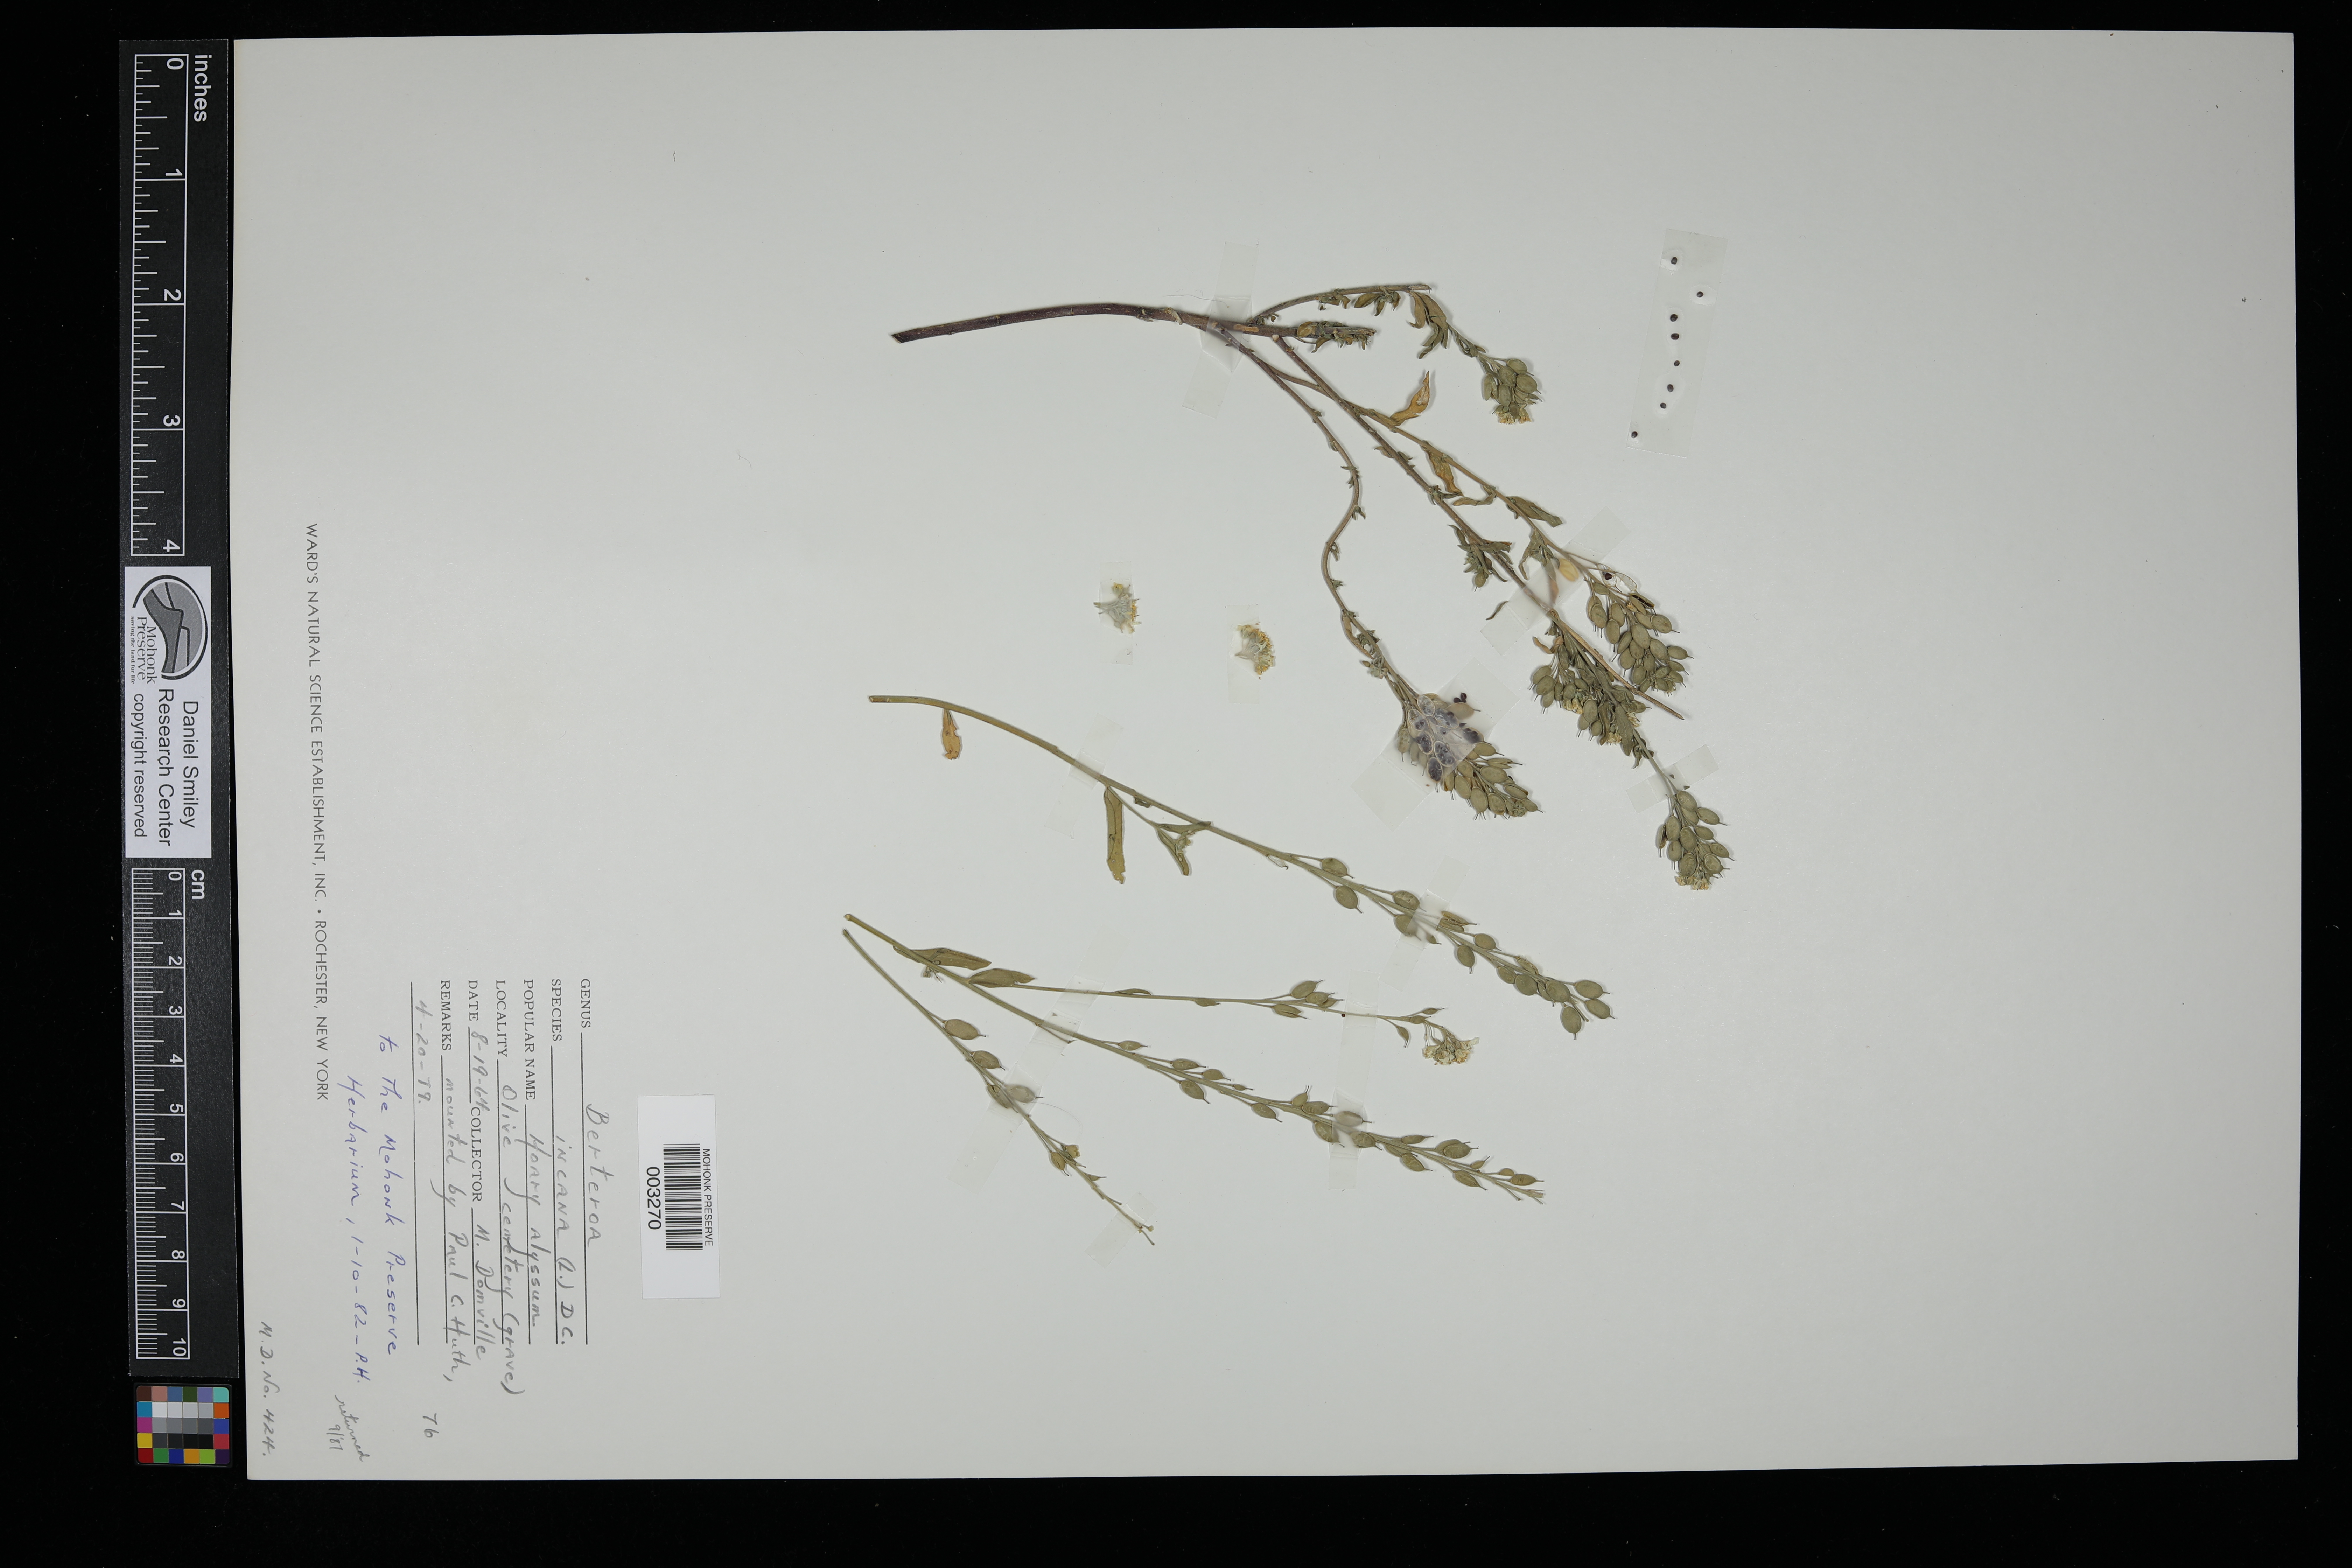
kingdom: Plantae
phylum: Tracheophyta
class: Magnoliopsida
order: Brassicales
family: Brassicaceae
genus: Berteroa
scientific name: Berteroa incana
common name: Hoary alison
